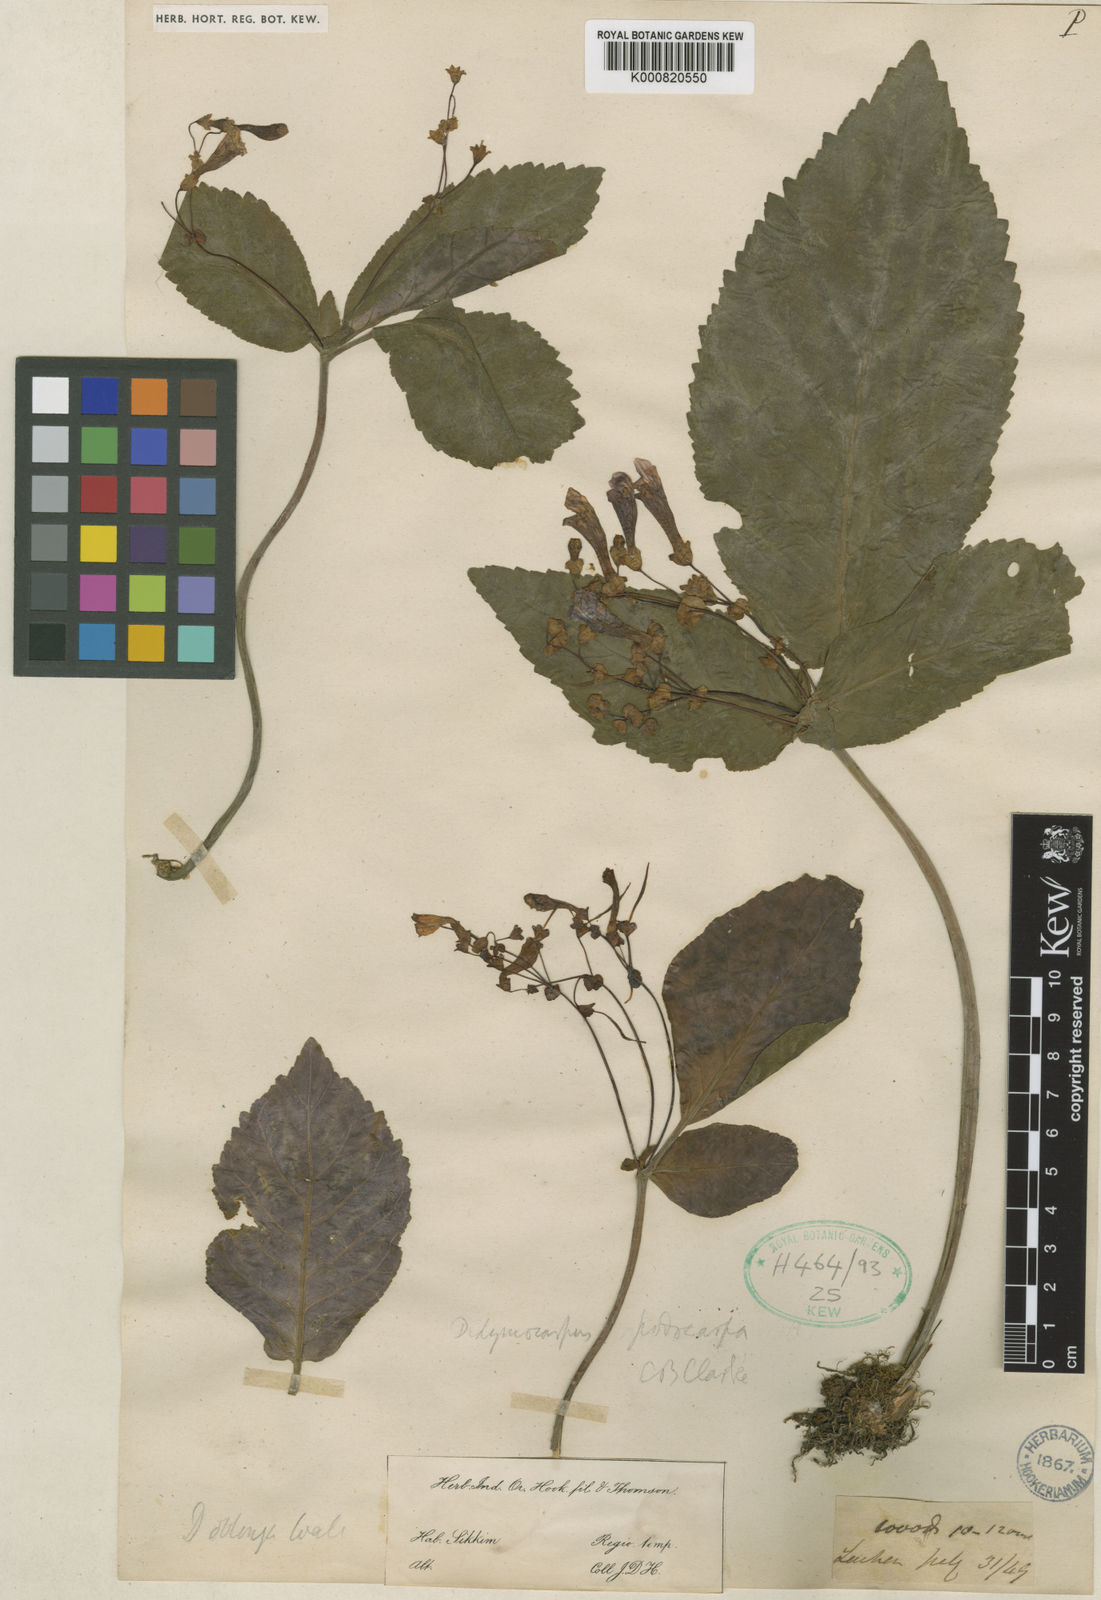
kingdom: Plantae
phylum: Tracheophyta
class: Magnoliopsida
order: Lamiales
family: Gesneriaceae
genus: Didymocarpus
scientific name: Didymocarpus podocarpus
